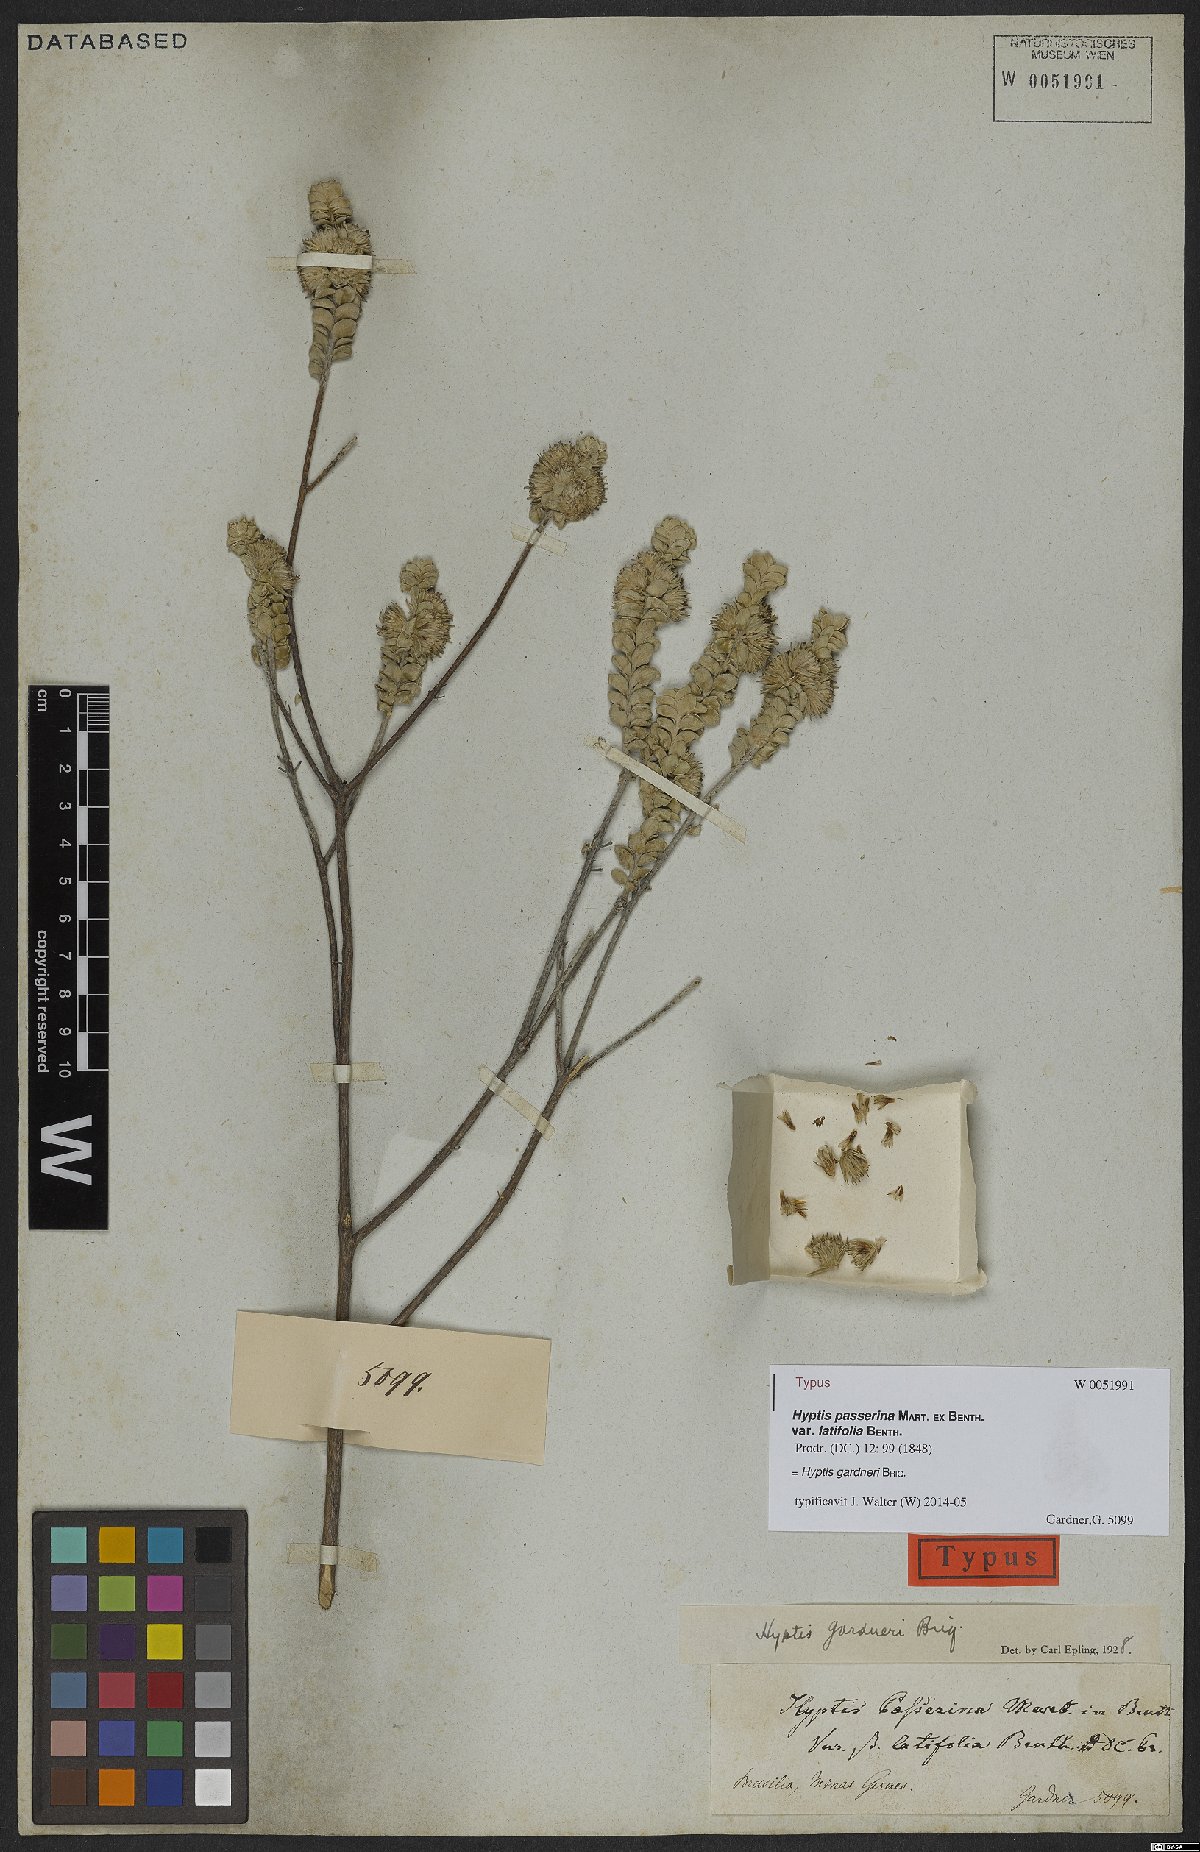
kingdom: Plantae
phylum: Tracheophyta
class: Magnoliopsida
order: Lamiales
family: Lamiaceae
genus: Hyptis
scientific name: Hyptis gardneri
